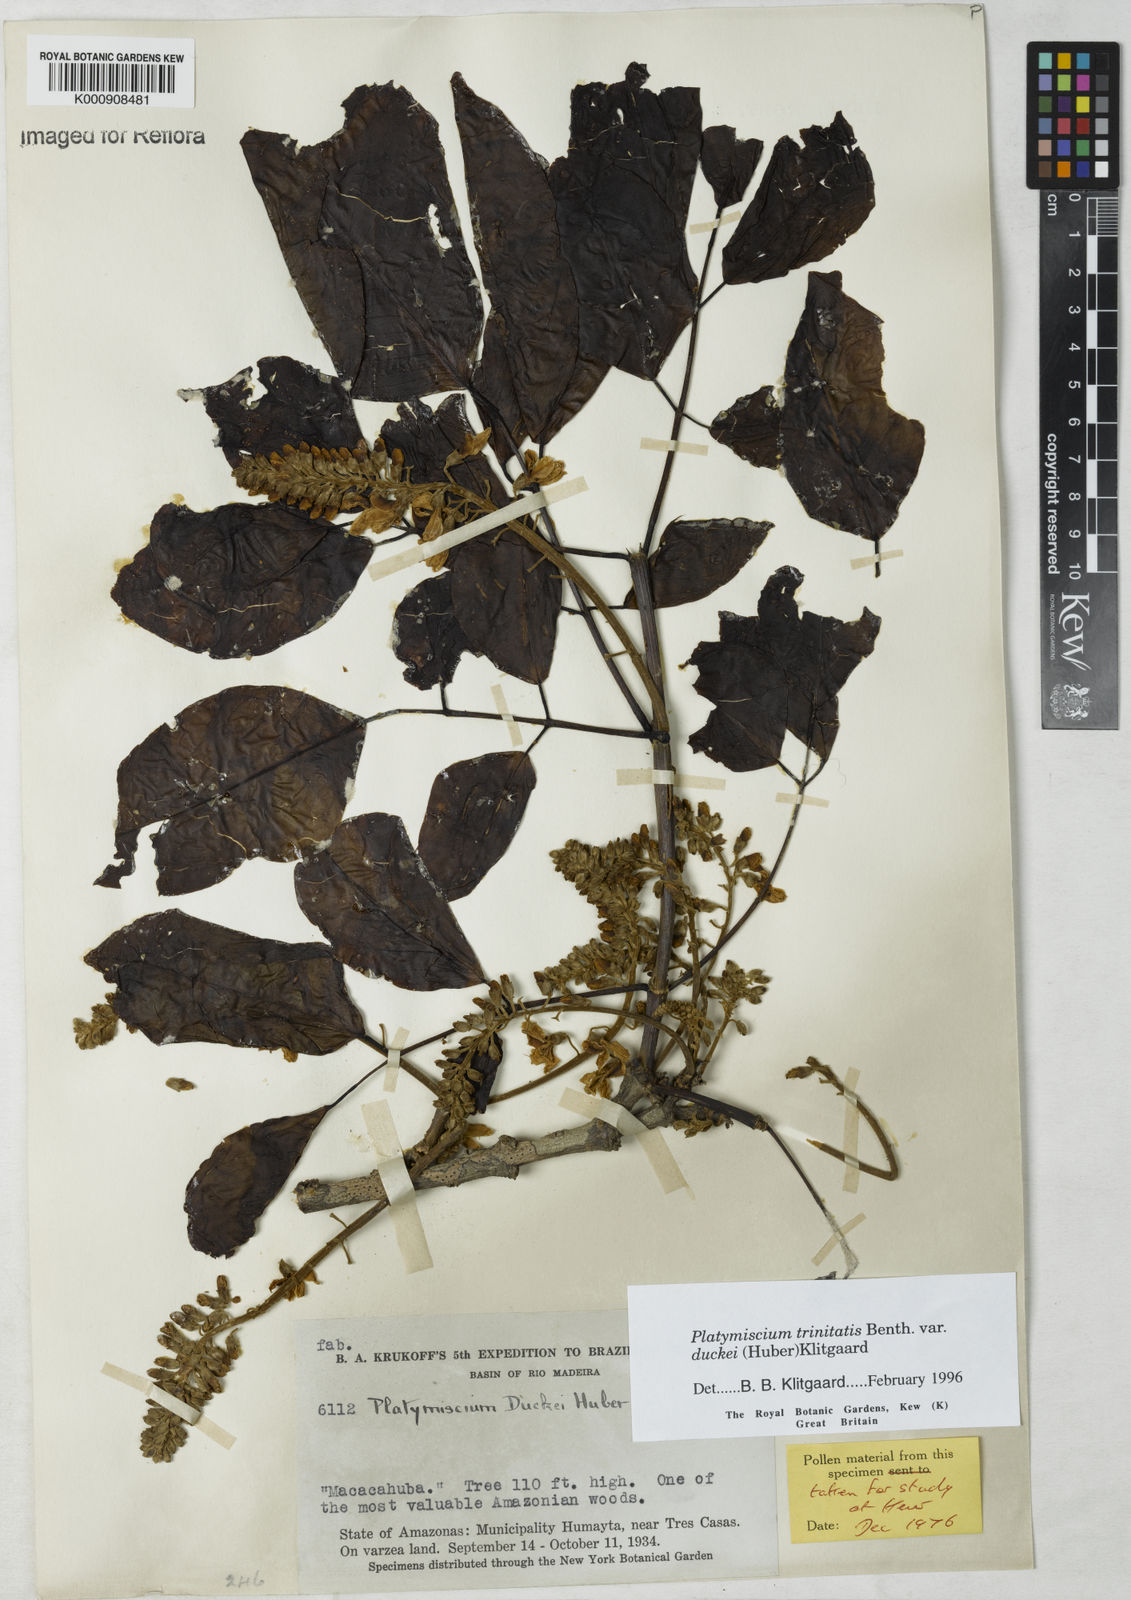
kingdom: Plantae
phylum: Tracheophyta
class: Magnoliopsida
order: Fabales
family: Fabaceae
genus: Platymiscium
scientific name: Platymiscium trinitatis
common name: Trinidad macawood
